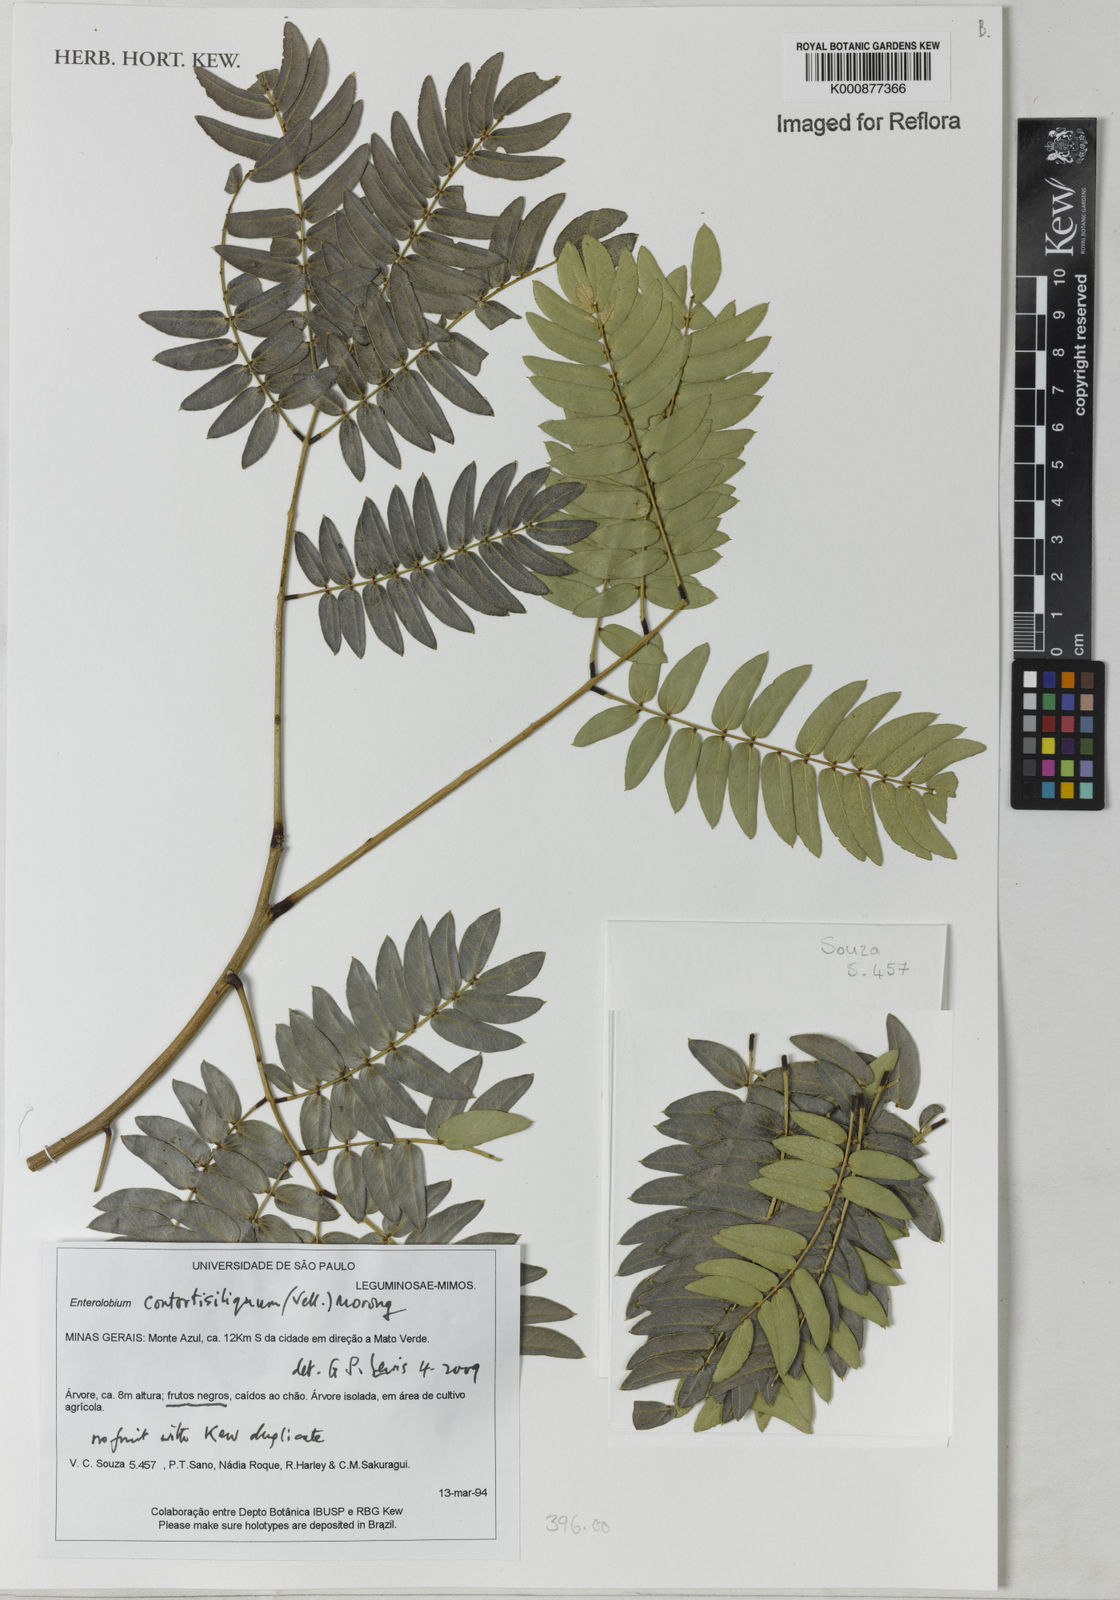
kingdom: Plantae
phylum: Tracheophyta
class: Magnoliopsida
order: Fabales
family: Fabaceae
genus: Enterolobium
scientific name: Enterolobium contortisiliquum
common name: Pacara earpod tree
